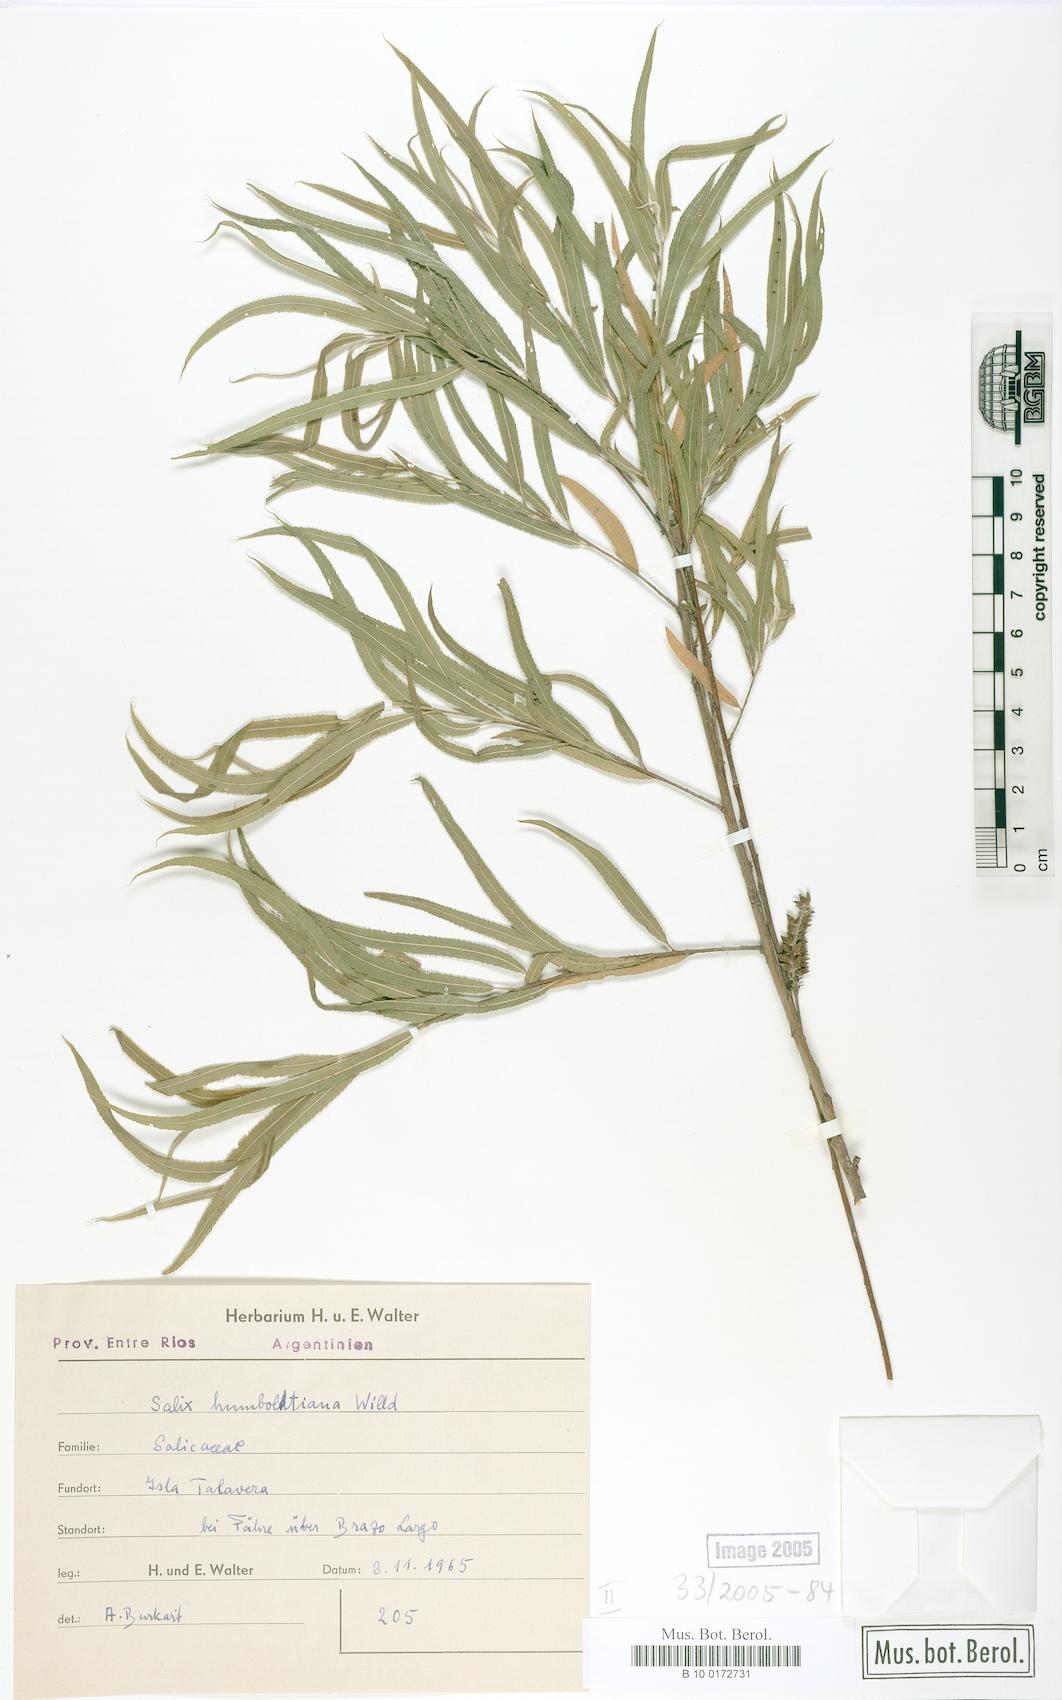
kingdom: Plantae
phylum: Tracheophyta
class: Magnoliopsida
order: Malpighiales
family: Salicaceae
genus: Salix
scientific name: Salix humboldtiana
